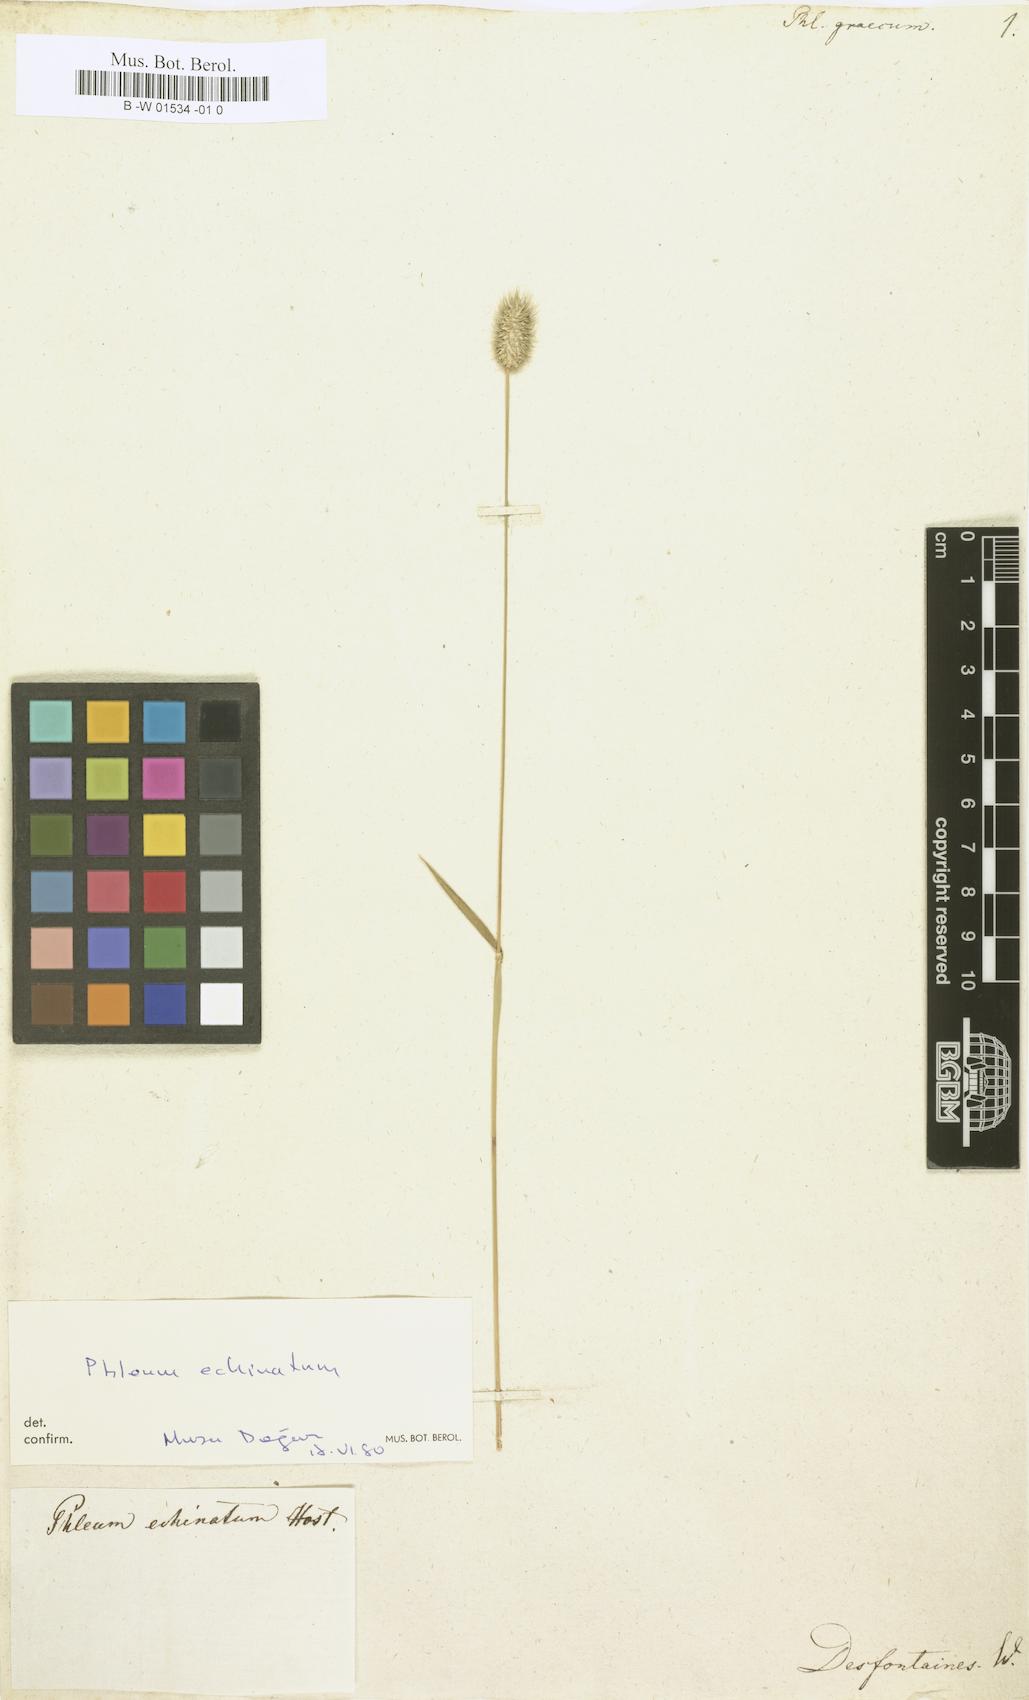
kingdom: Plantae
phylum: Tracheophyta
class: Liliopsida
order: Poales
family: Poaceae
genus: Phleum
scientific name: Phleum exaratum
